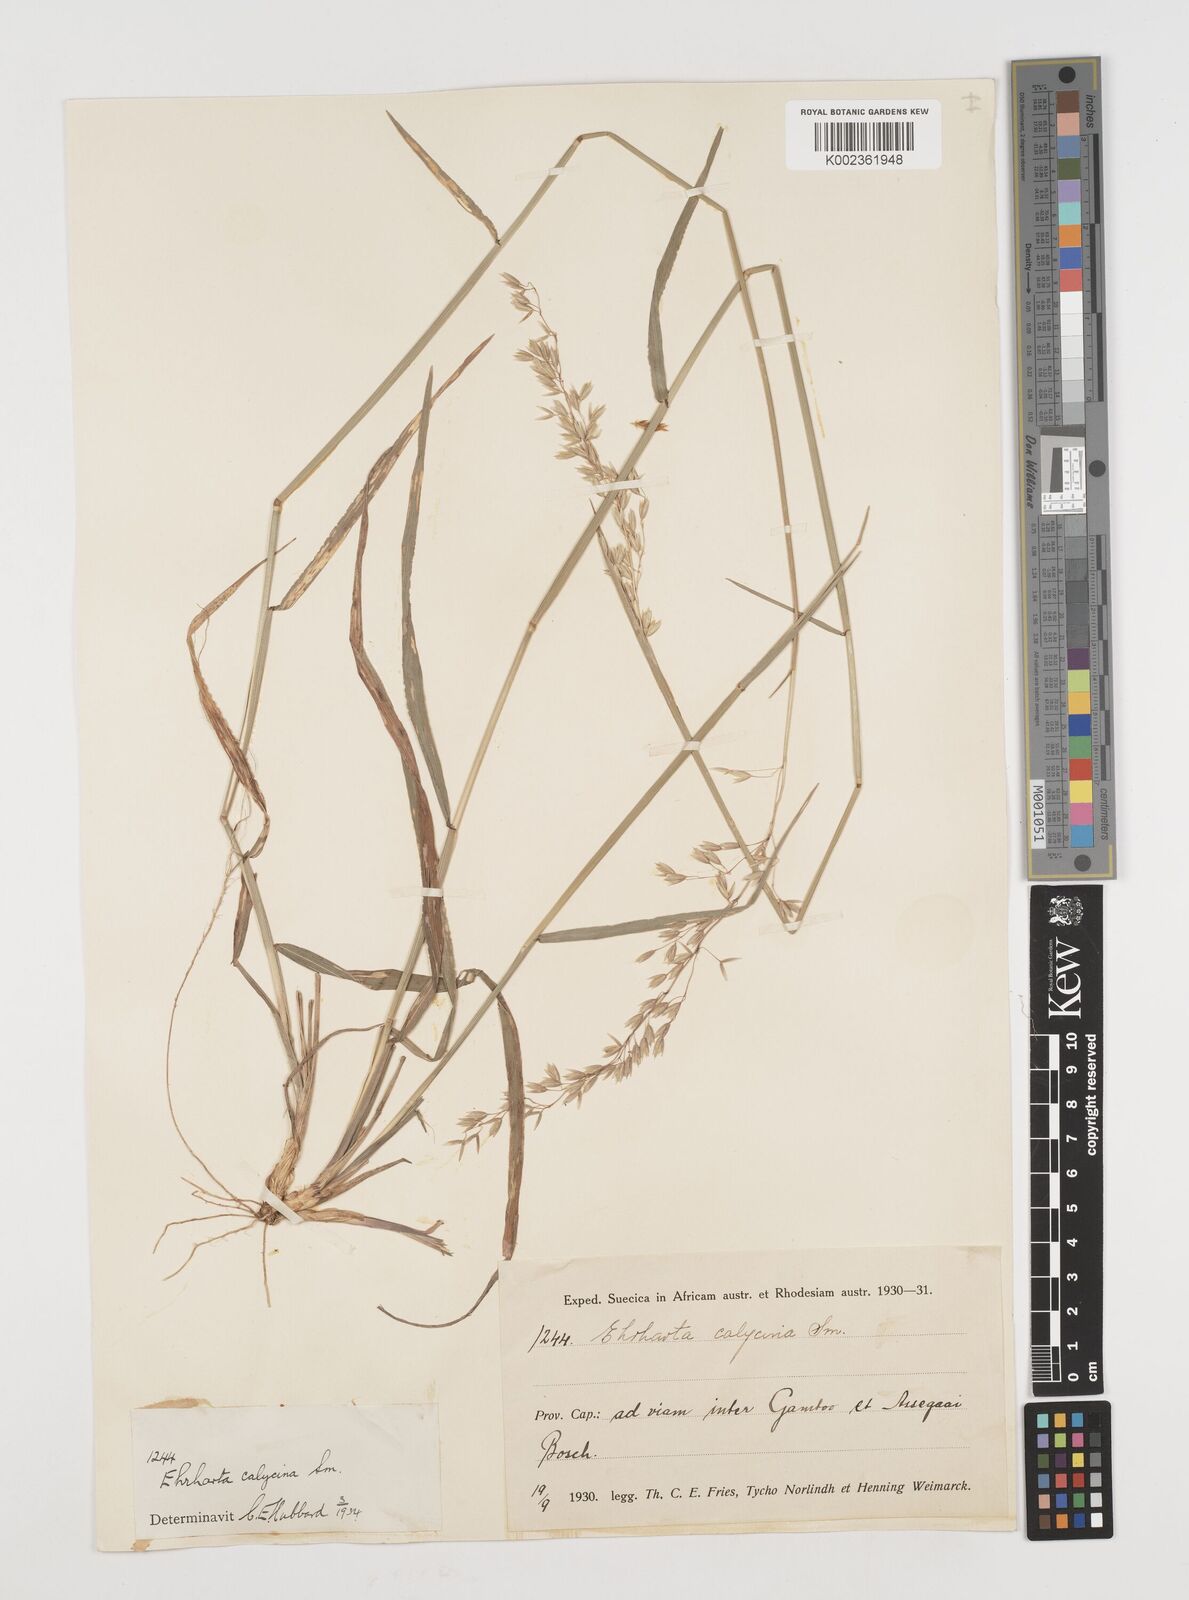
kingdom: Plantae
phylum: Tracheophyta
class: Liliopsida
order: Poales
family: Poaceae
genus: Ehrharta
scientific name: Ehrharta calycina
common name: Perennial veldtgrass
